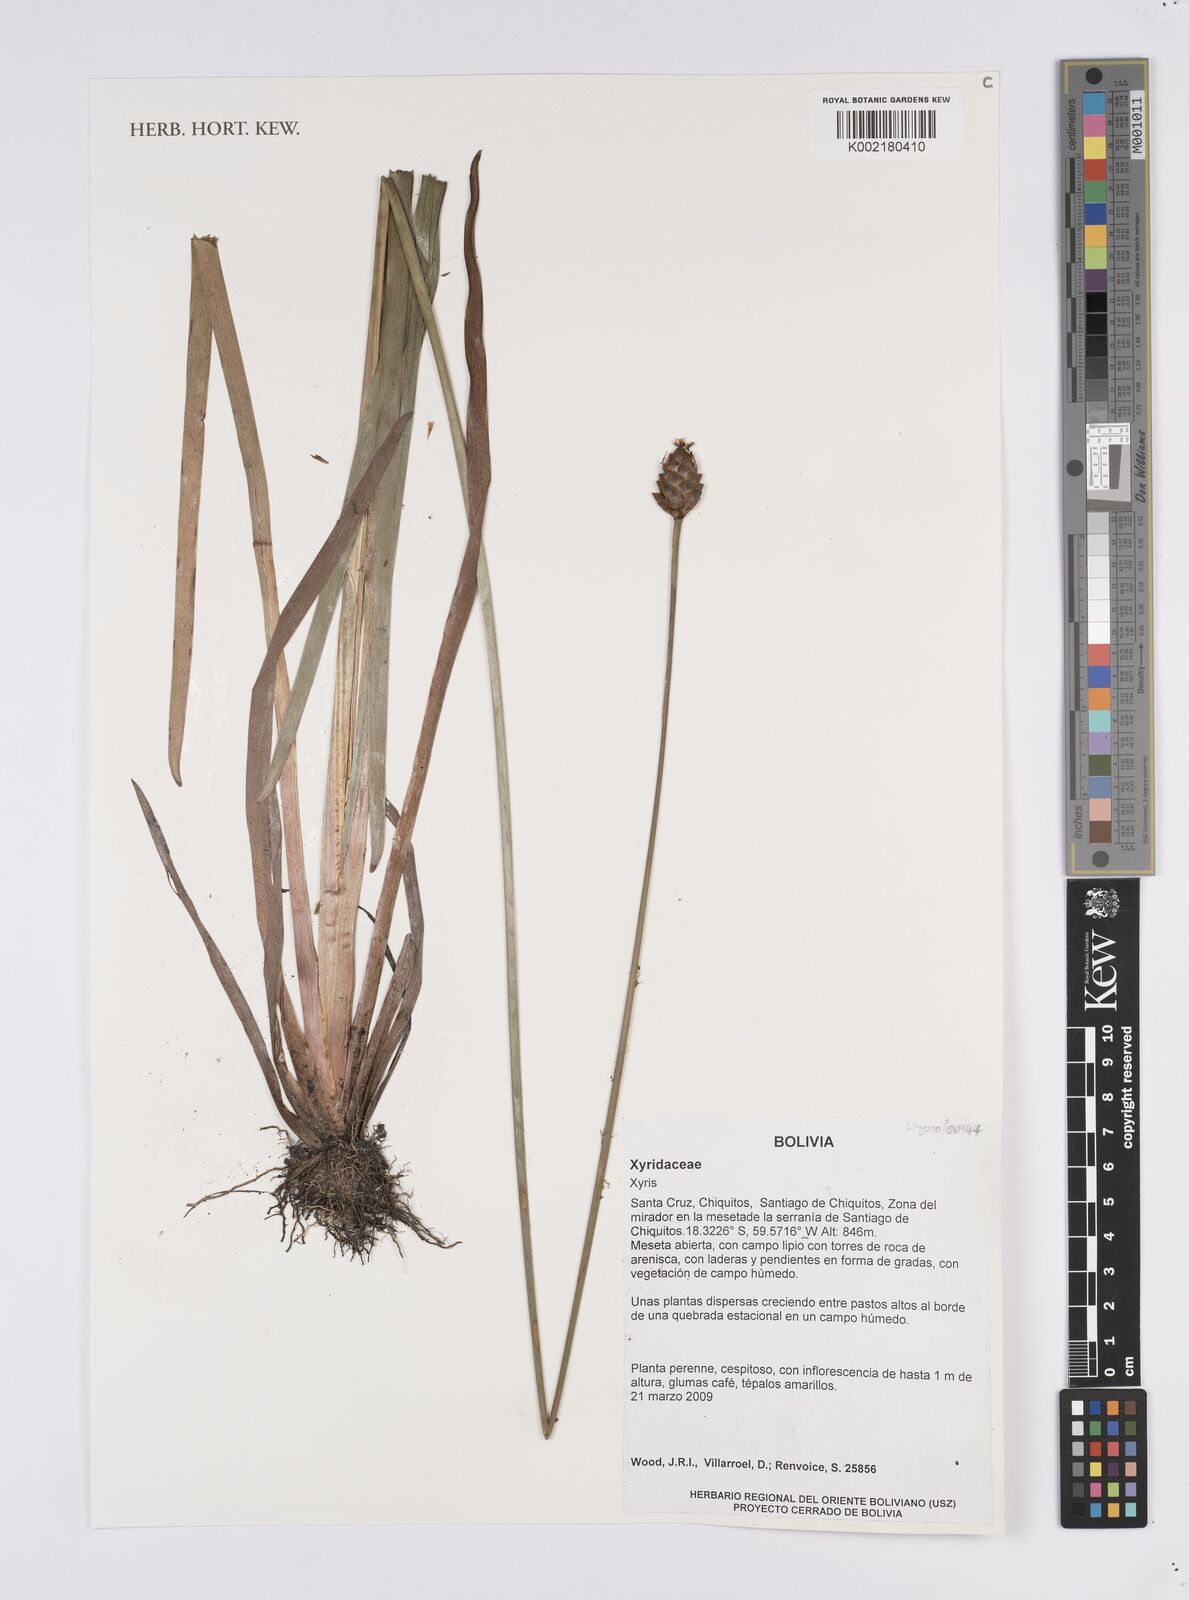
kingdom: Plantae
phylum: Tracheophyta
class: Liliopsida
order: Poales
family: Xyridaceae
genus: Xyris
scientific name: Xyris
